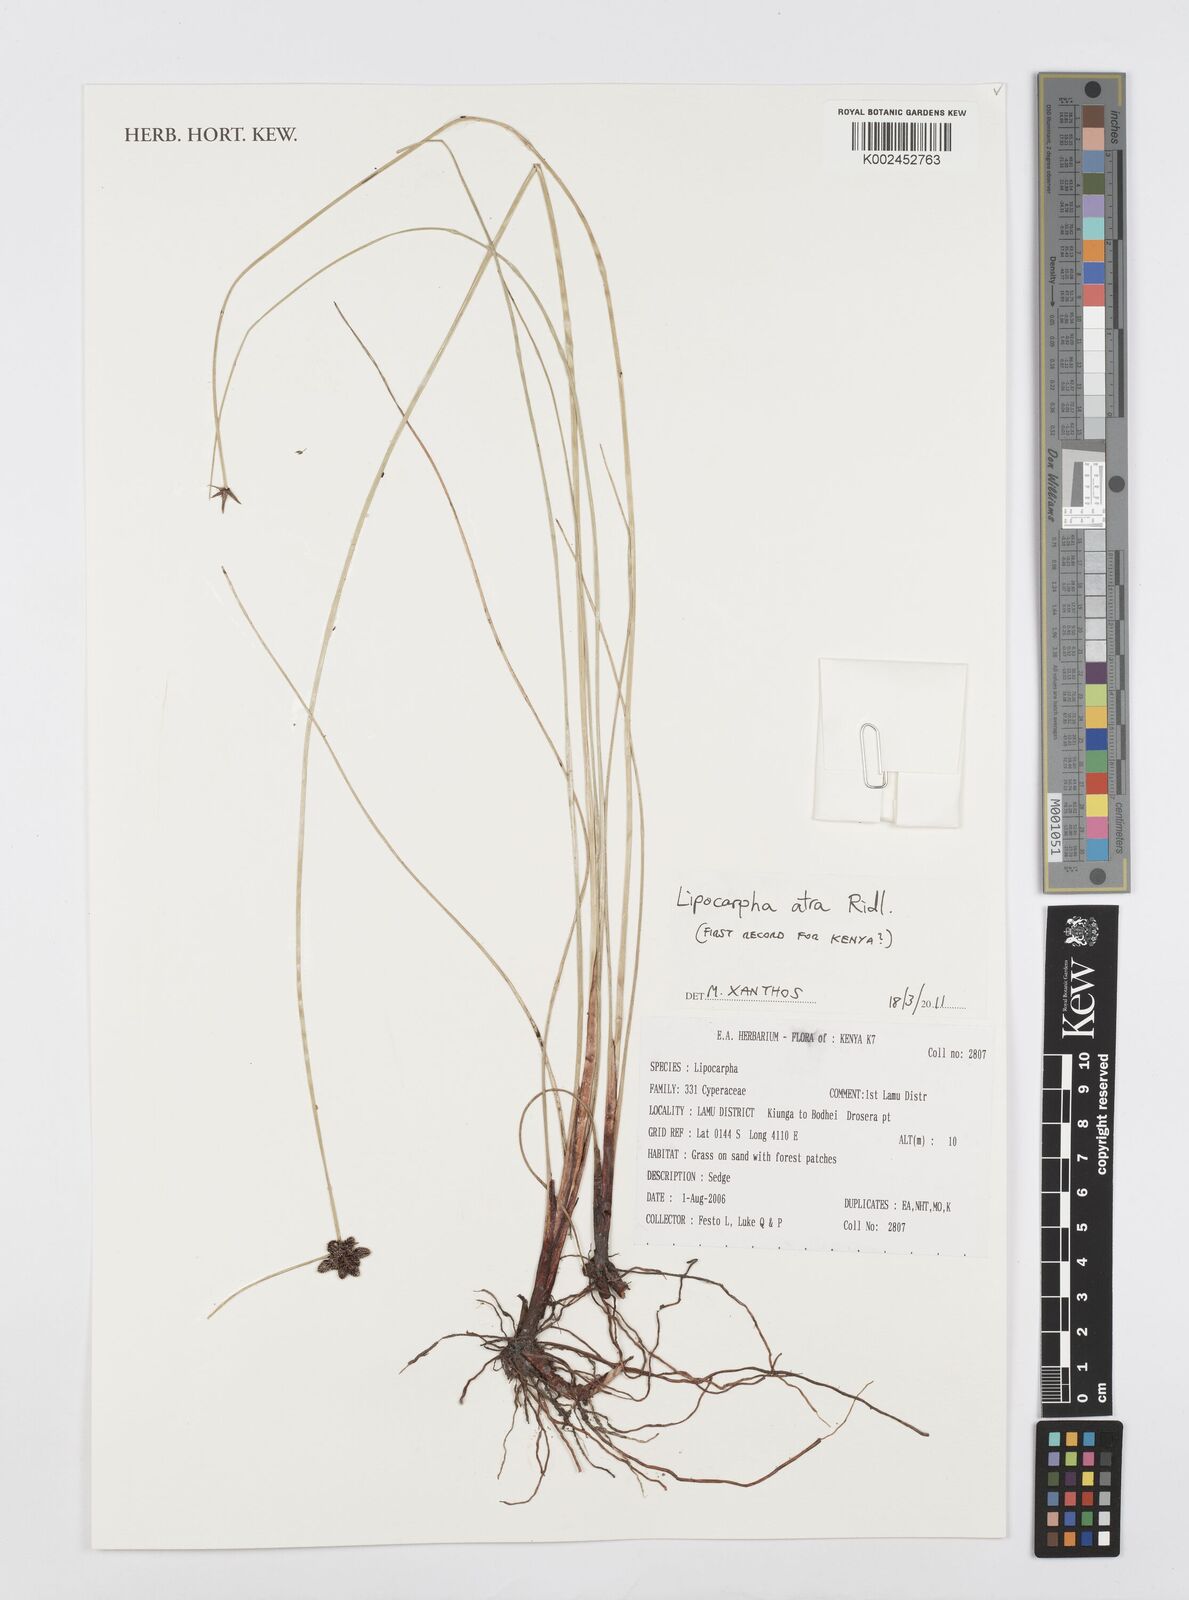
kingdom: Plantae
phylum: Tracheophyta
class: Liliopsida
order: Poales
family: Cyperaceae
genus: Cyperus
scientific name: Cyperus lipoater
